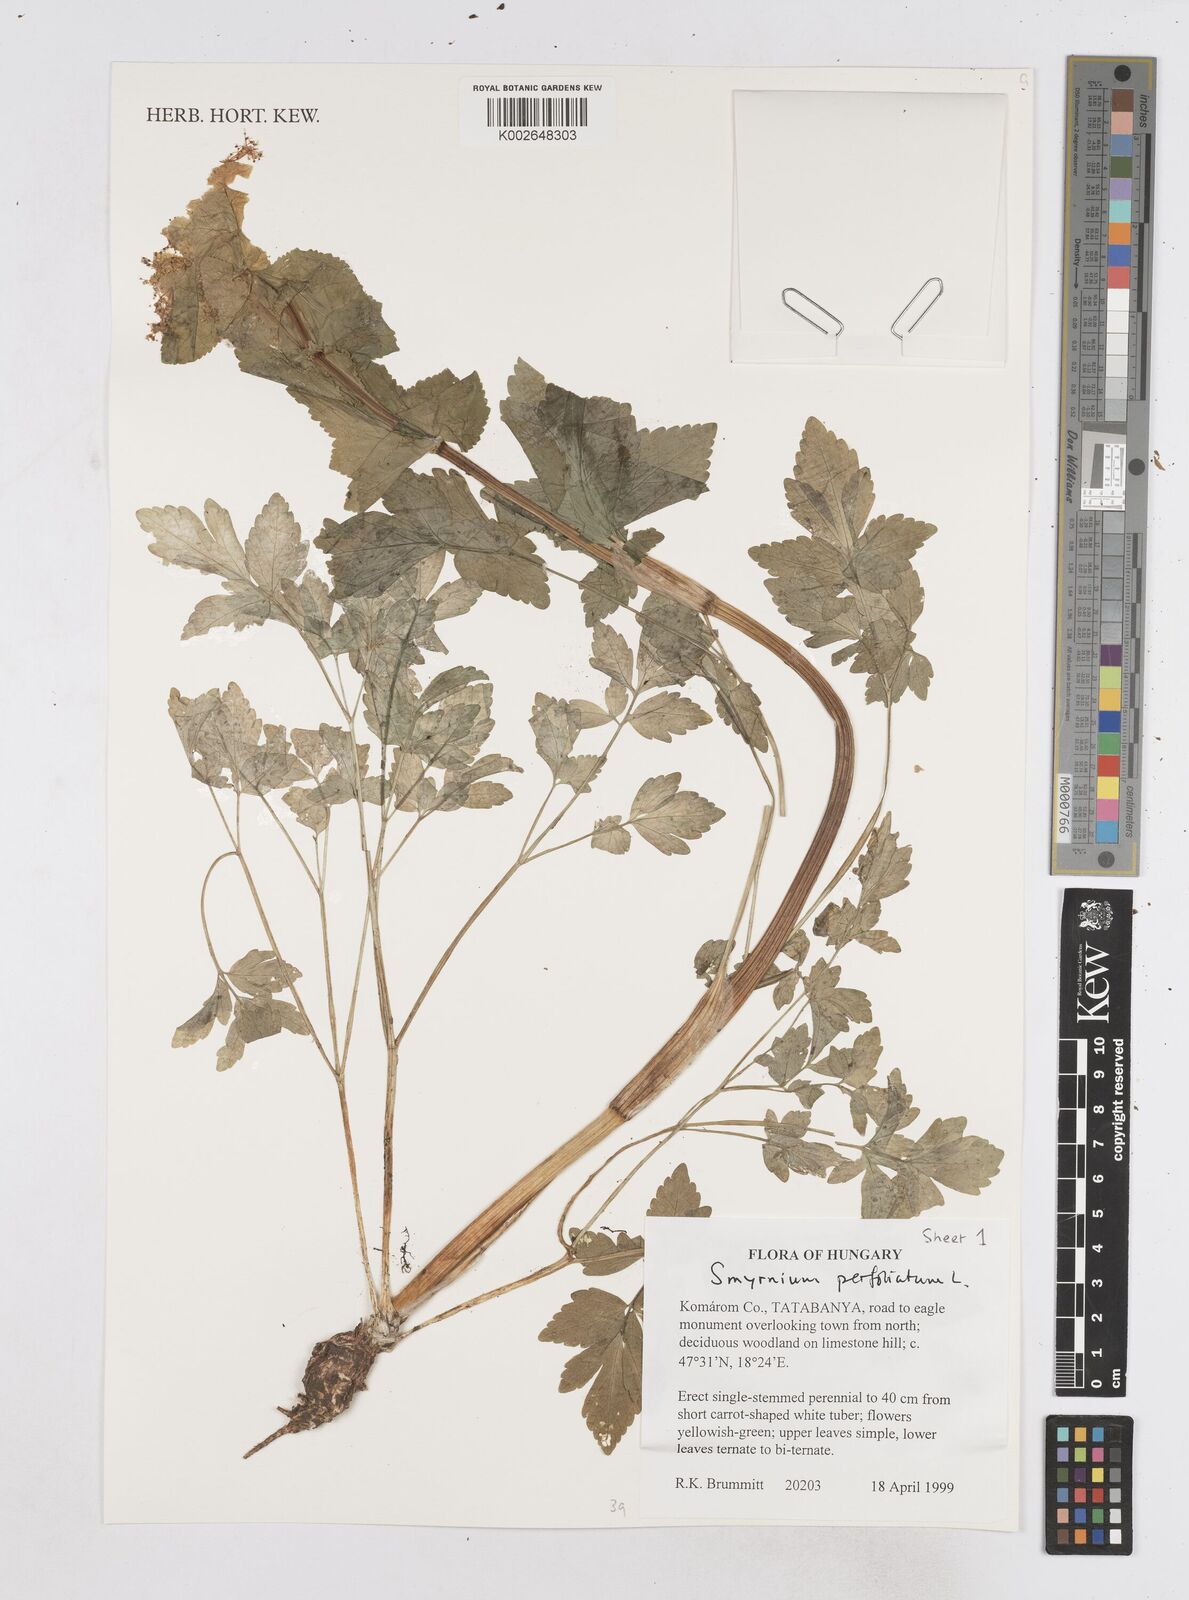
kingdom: Plantae
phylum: Tracheophyta
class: Magnoliopsida
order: Apiales
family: Apiaceae
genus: Smyrnium
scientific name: Smyrnium perfoliatum
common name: Perfoliate alexanders
